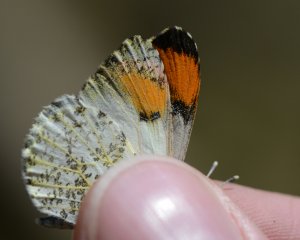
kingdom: Animalia
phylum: Arthropoda
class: Insecta
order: Lepidoptera
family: Pieridae
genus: Anthocharis
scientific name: Anthocharis sara
